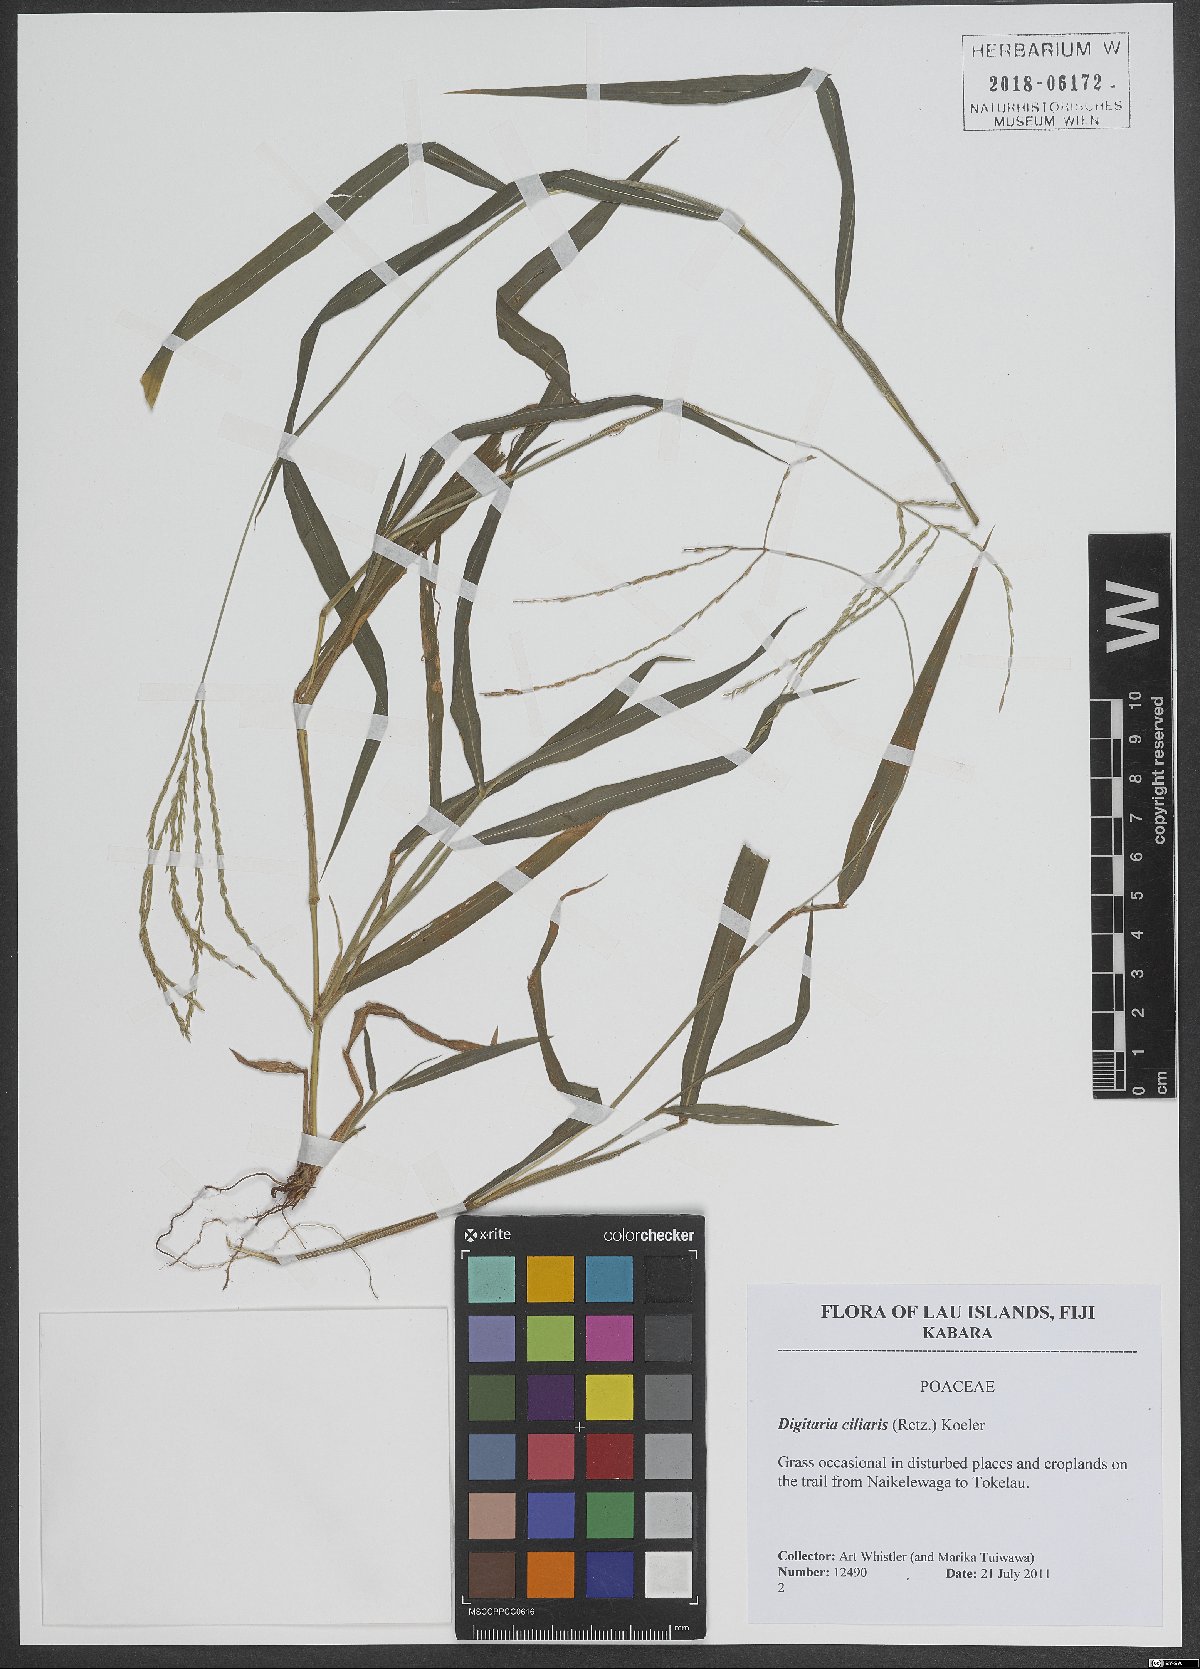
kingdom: Plantae
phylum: Tracheophyta
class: Liliopsida
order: Poales
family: Poaceae
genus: Digitaria
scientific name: Digitaria ciliaris
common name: Tropical finger-grass
